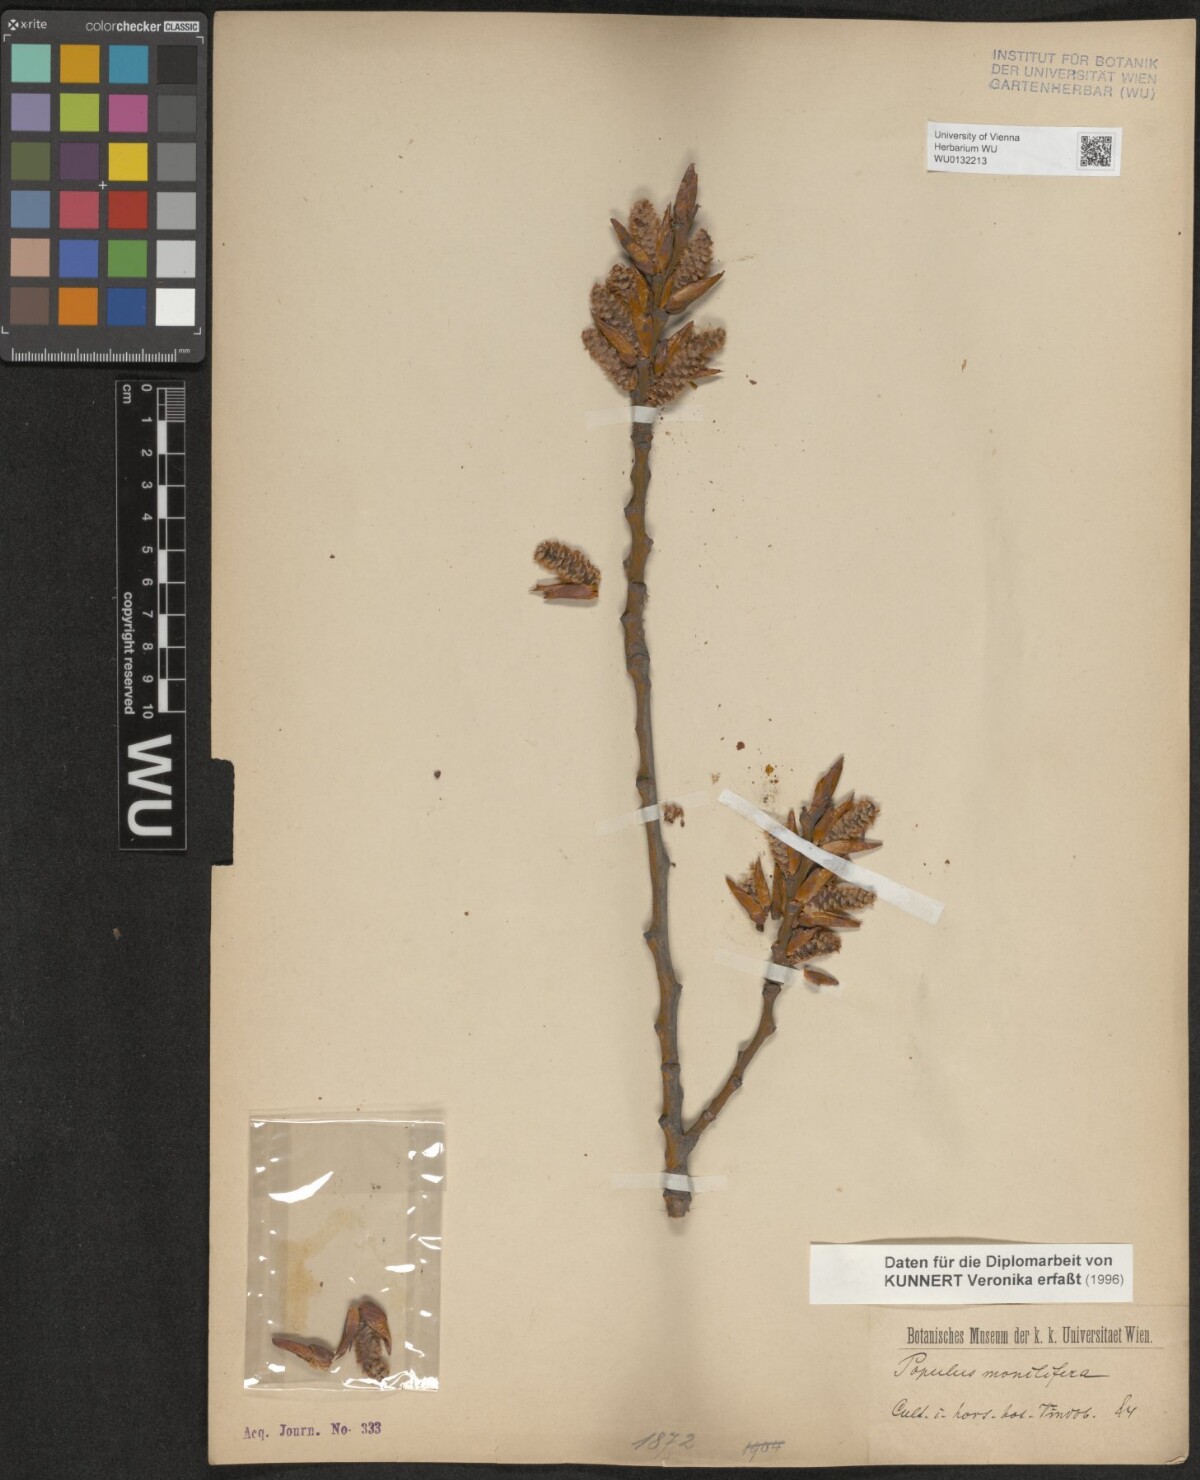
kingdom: Plantae
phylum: Tracheophyta
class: Magnoliopsida
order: Malpighiales
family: Salicaceae
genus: Populus
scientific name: Populus deltoides
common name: Eastern cottonwood
